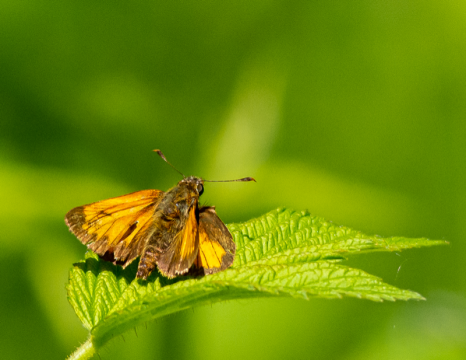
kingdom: Animalia
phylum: Arthropoda
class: Insecta
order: Lepidoptera
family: Hesperiidae
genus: Lon
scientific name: Lon hobomok
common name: Hobomok Skipper
